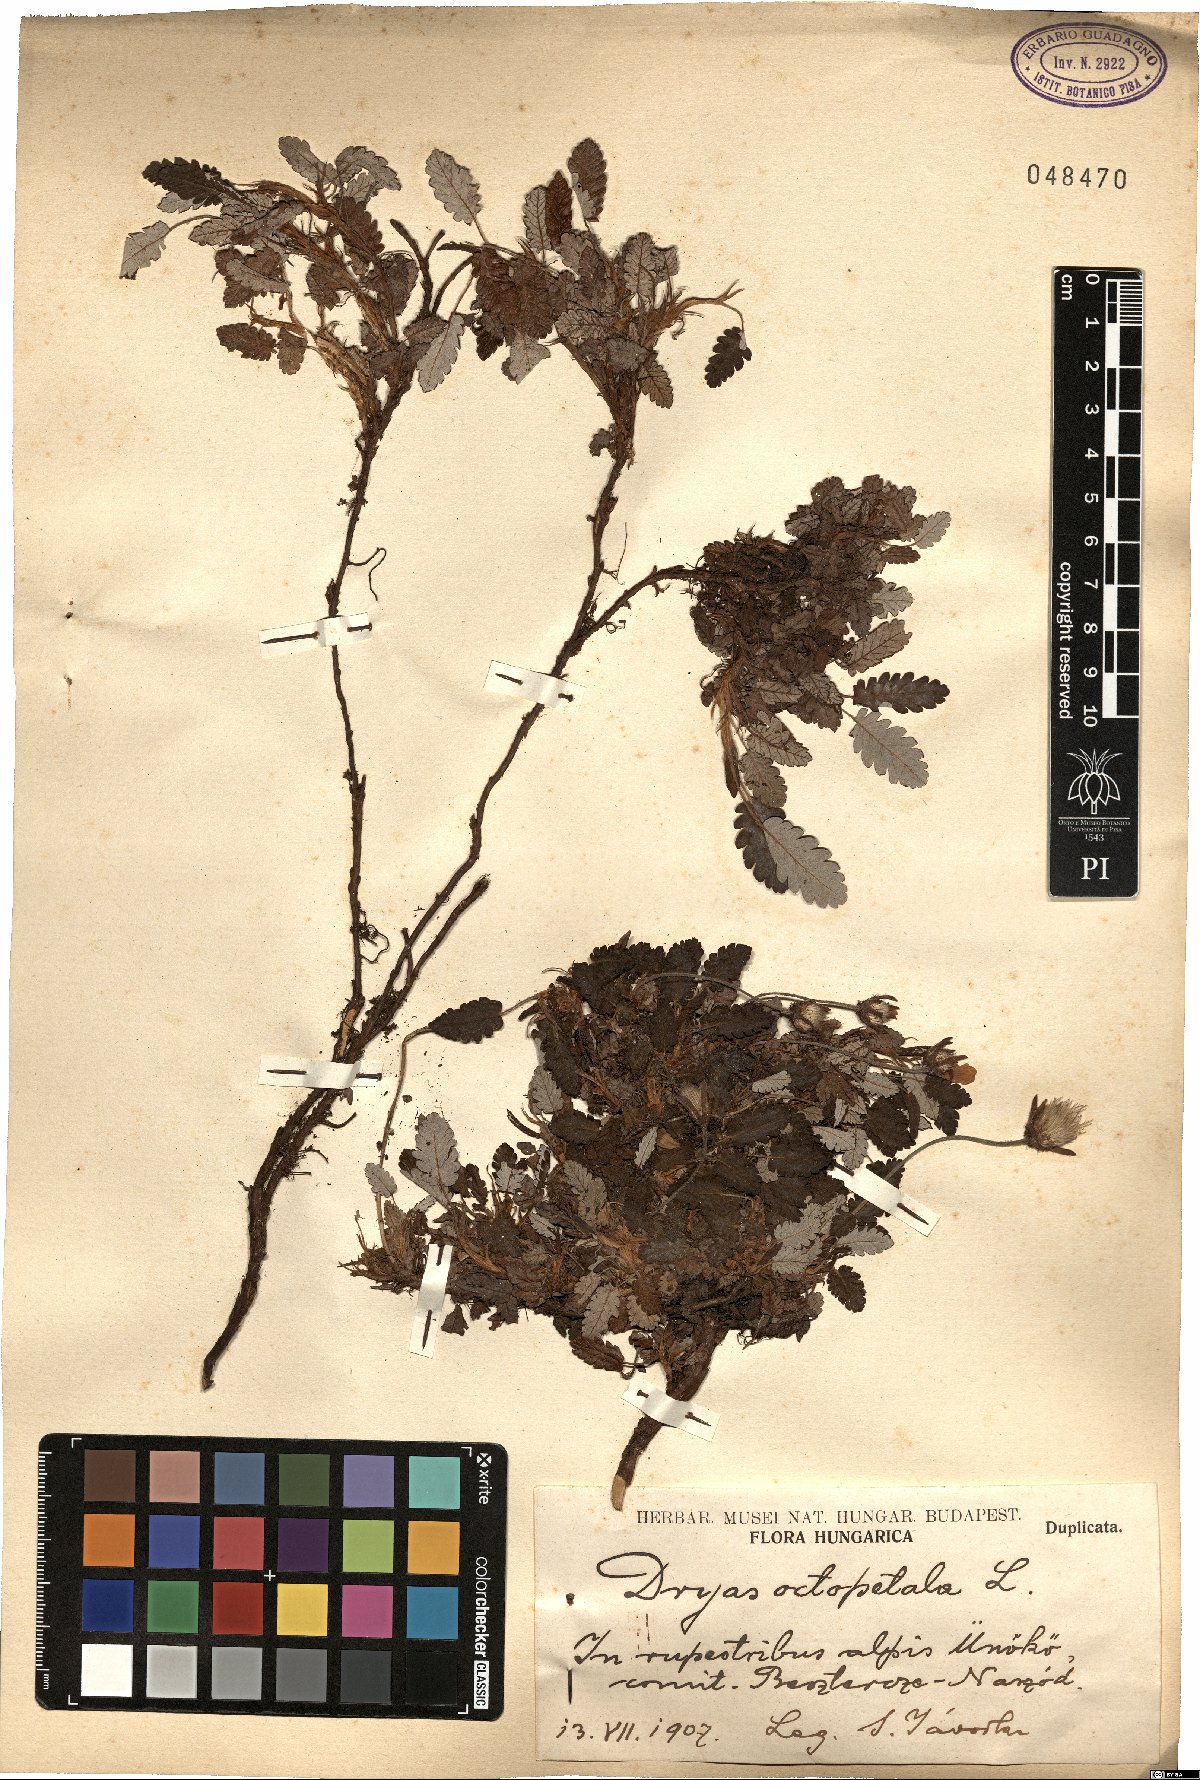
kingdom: Plantae
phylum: Tracheophyta
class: Magnoliopsida
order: Rosales
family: Rosaceae
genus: Dryas
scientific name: Dryas octopetala
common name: Eight-petal mountain-avens
